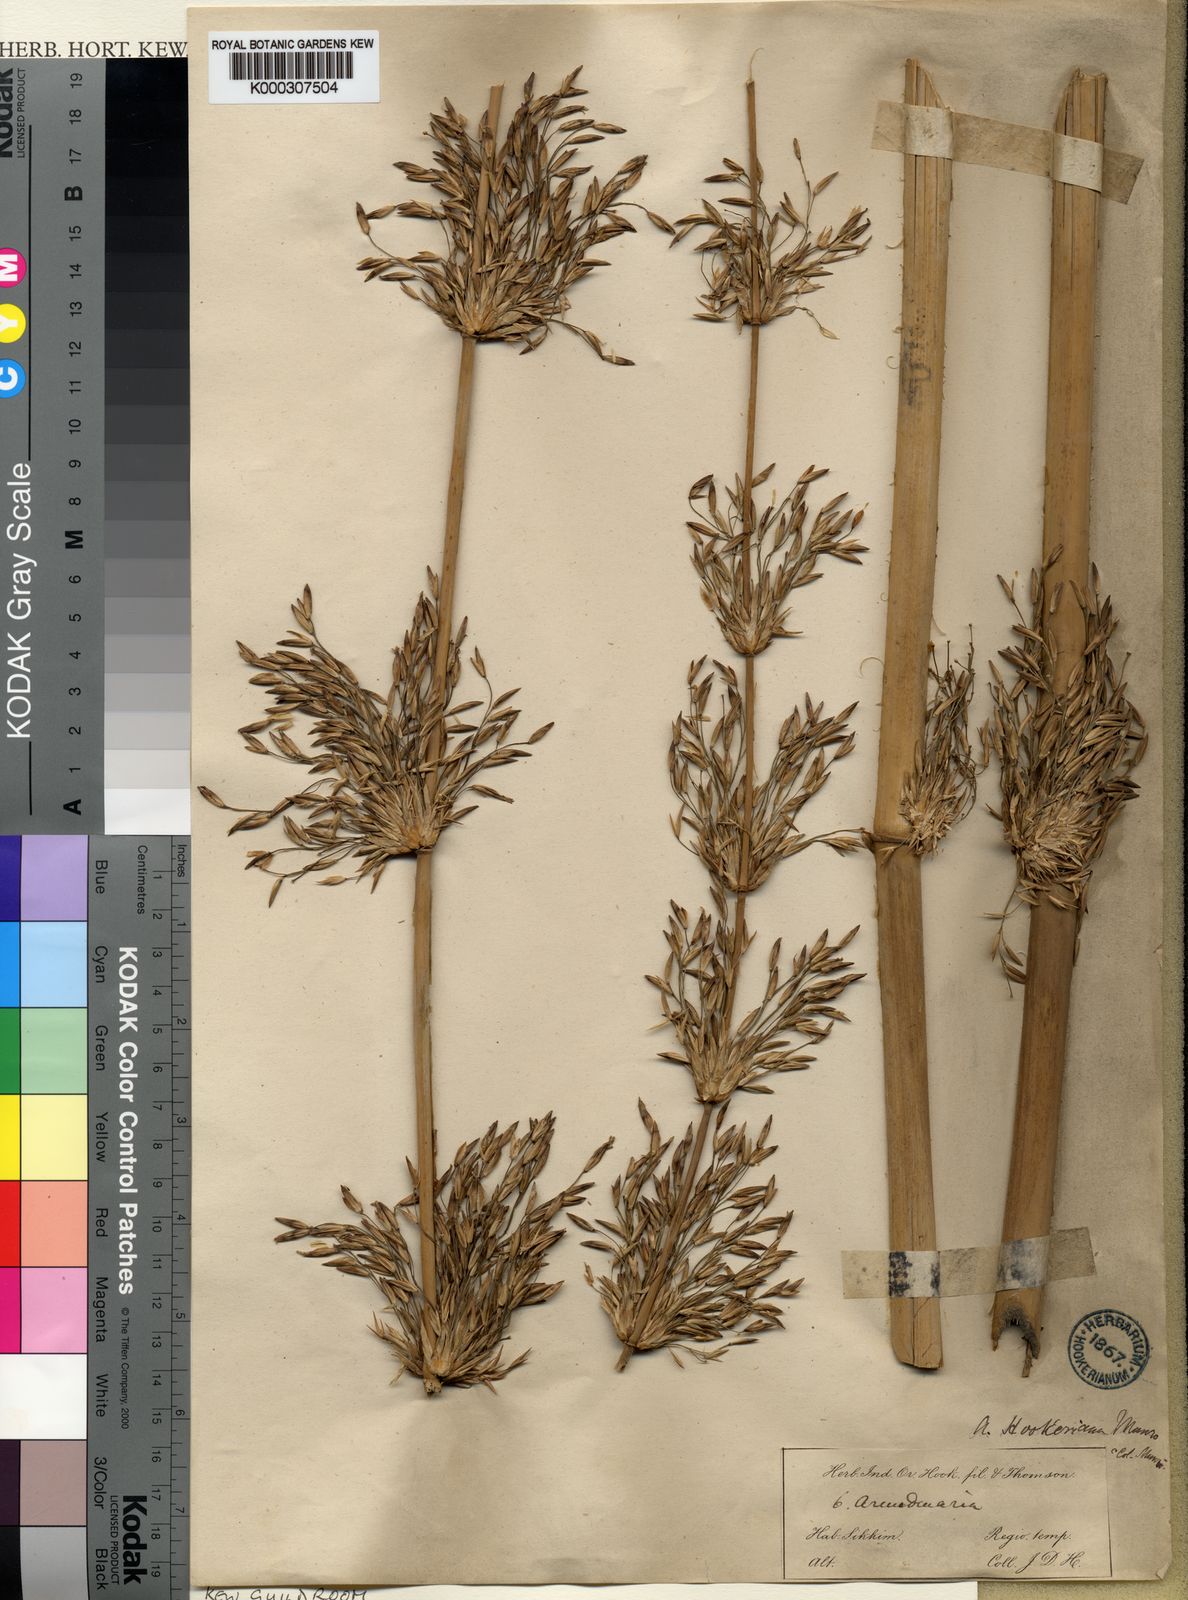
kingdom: Plantae
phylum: Tracheophyta
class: Liliopsida
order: Poales
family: Poaceae
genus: Himalayacalamus
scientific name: Himalayacalamus hookerianus
